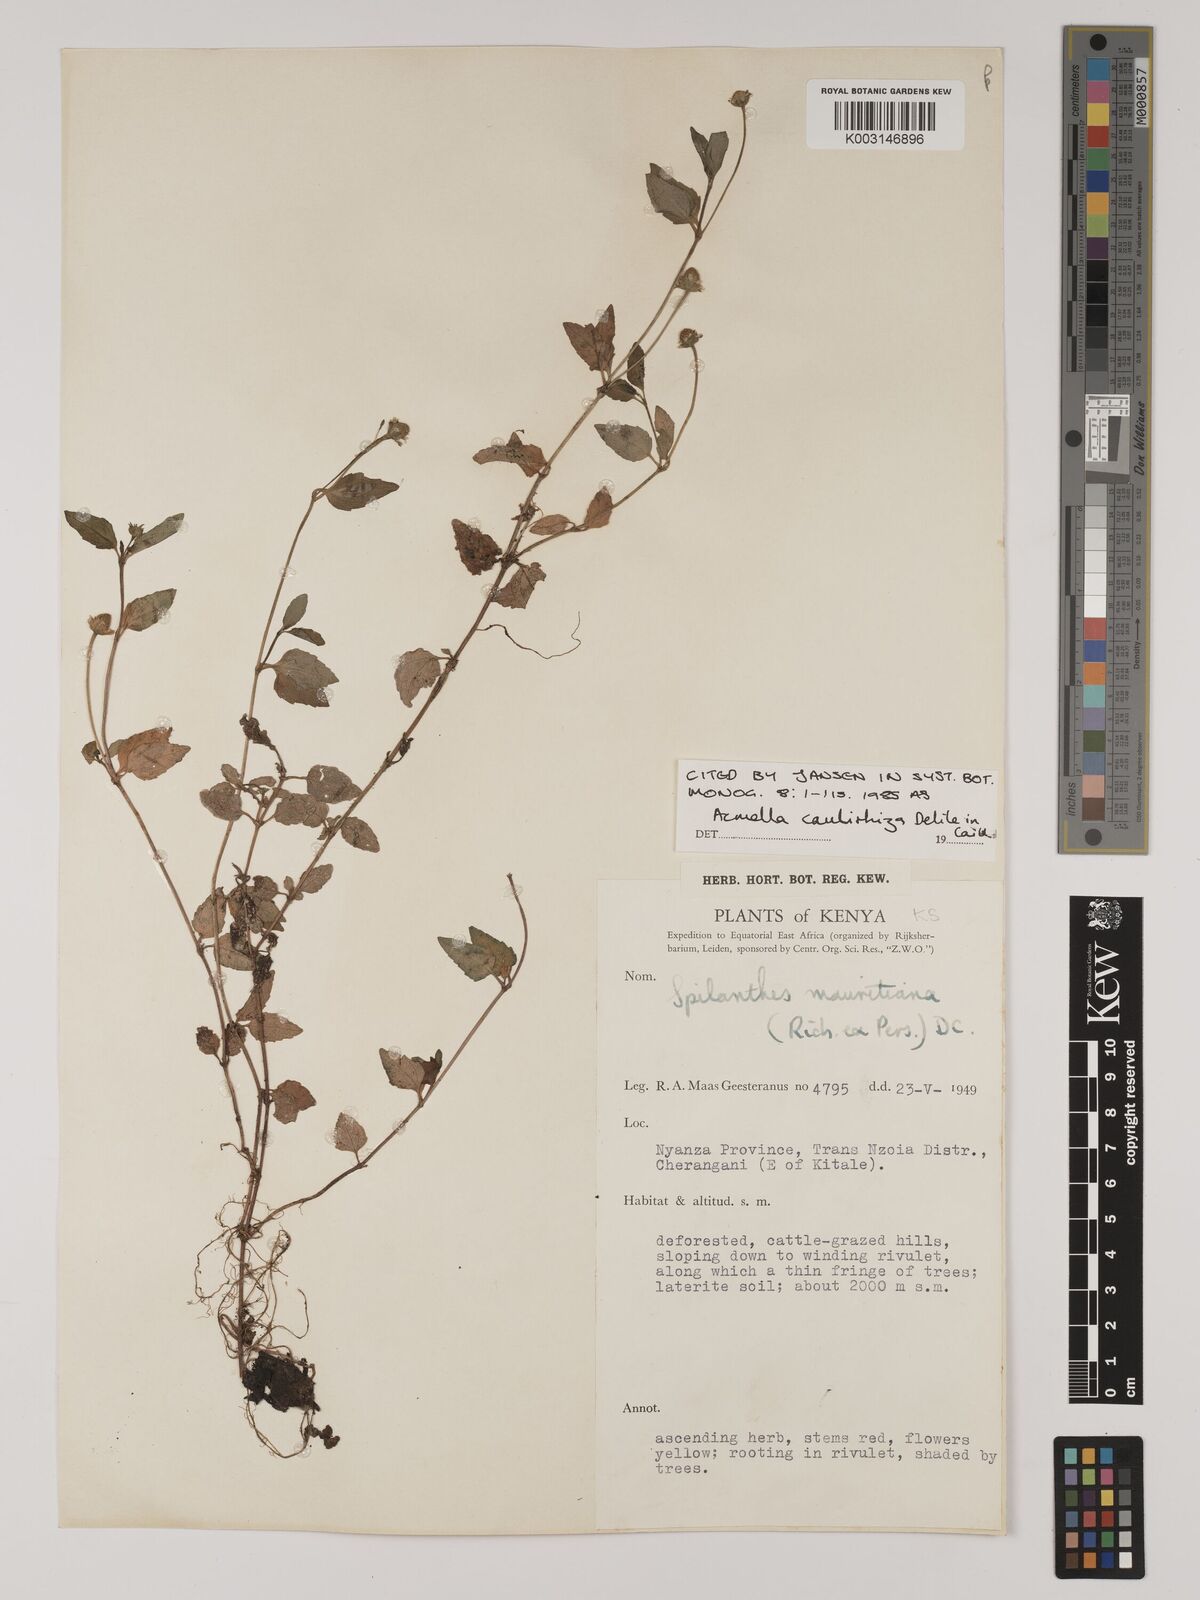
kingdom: Plantae
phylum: Tracheophyta
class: Magnoliopsida
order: Asterales
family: Asteraceae
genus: Acmella
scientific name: Acmella caulirhiza
